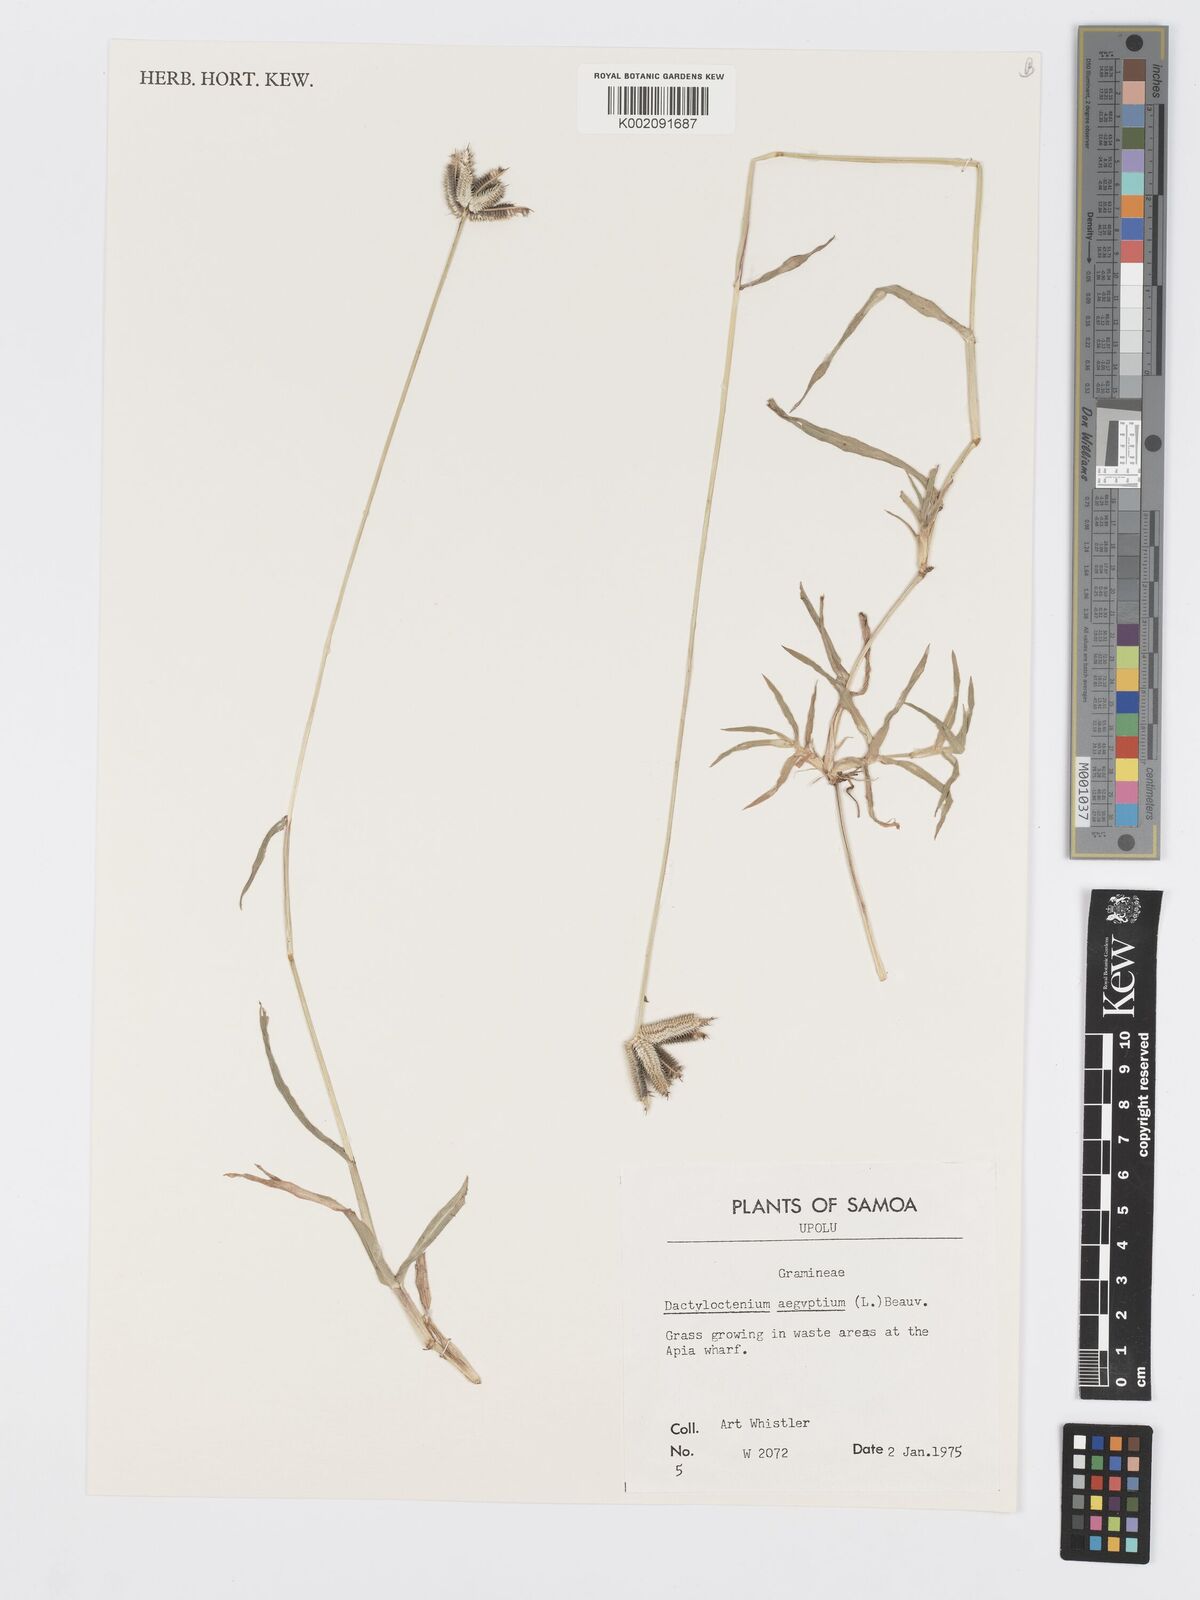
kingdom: Plantae
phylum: Tracheophyta
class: Liliopsida
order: Poales
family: Poaceae
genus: Dactyloctenium
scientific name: Dactyloctenium aegyptium
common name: Egyptian grass
